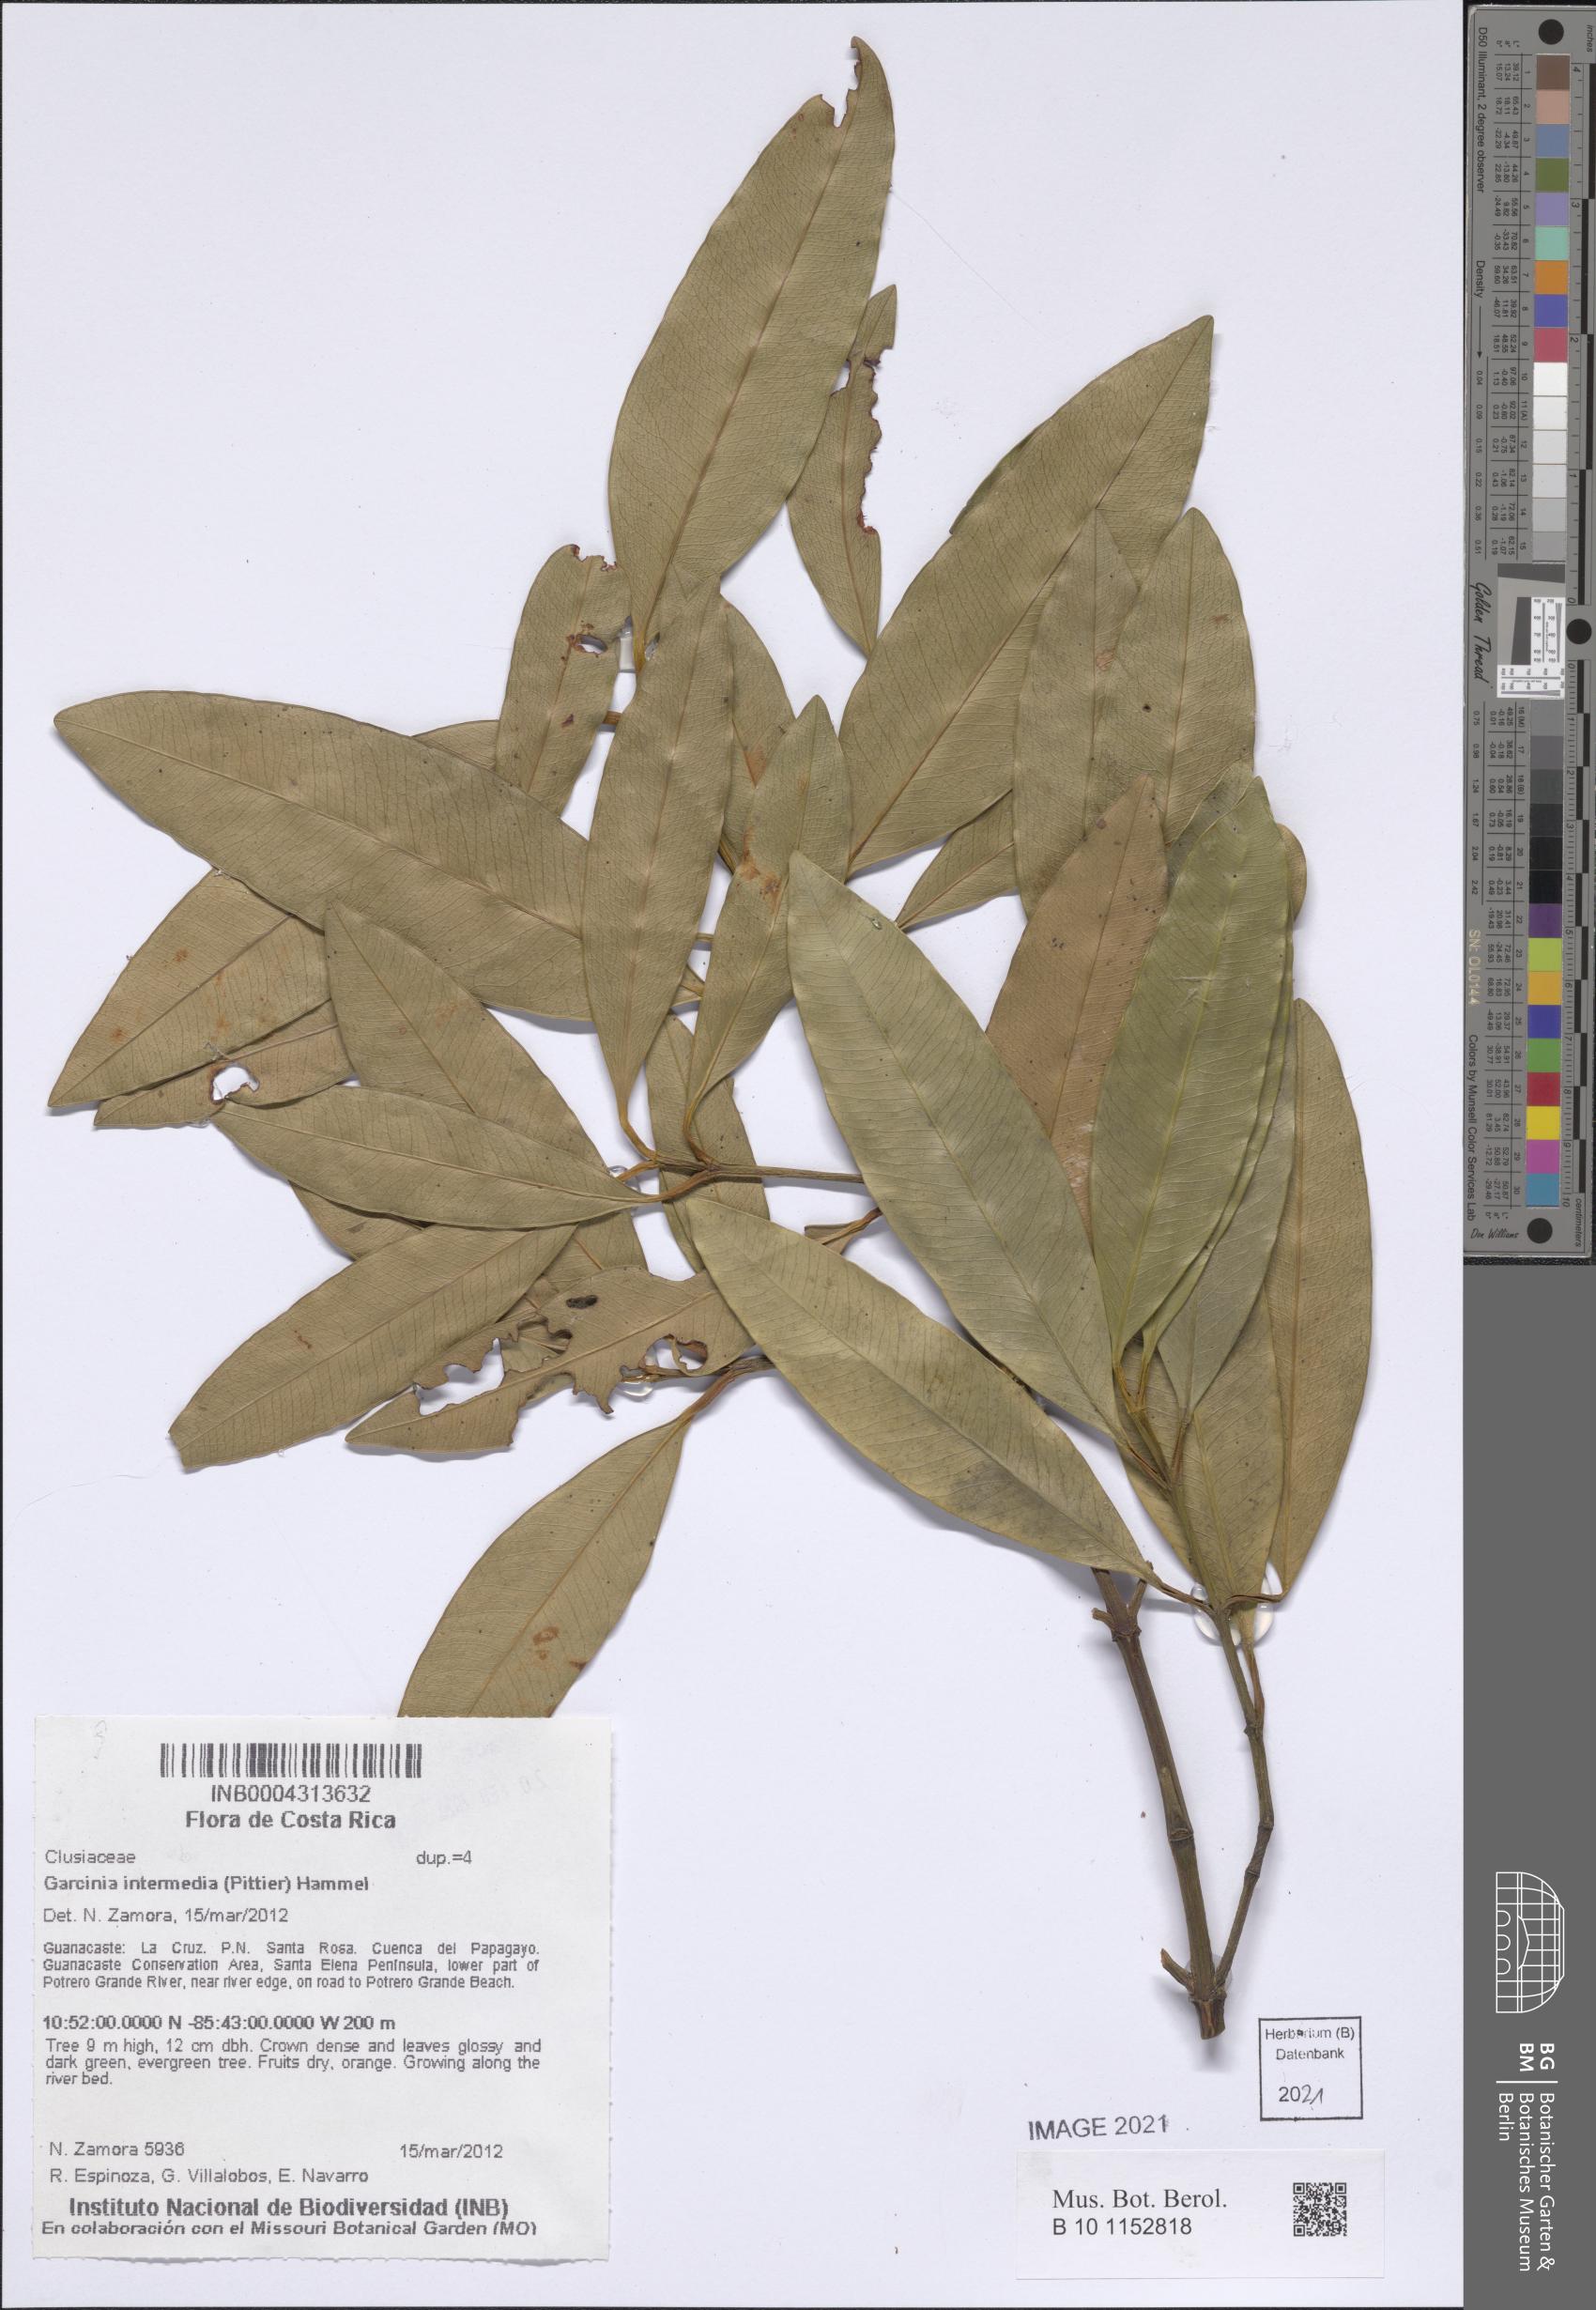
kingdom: Plantae
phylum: Tracheophyta
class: Magnoliopsida
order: Malpighiales
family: Clusiaceae
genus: Garcinia
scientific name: Garcinia intermedia
